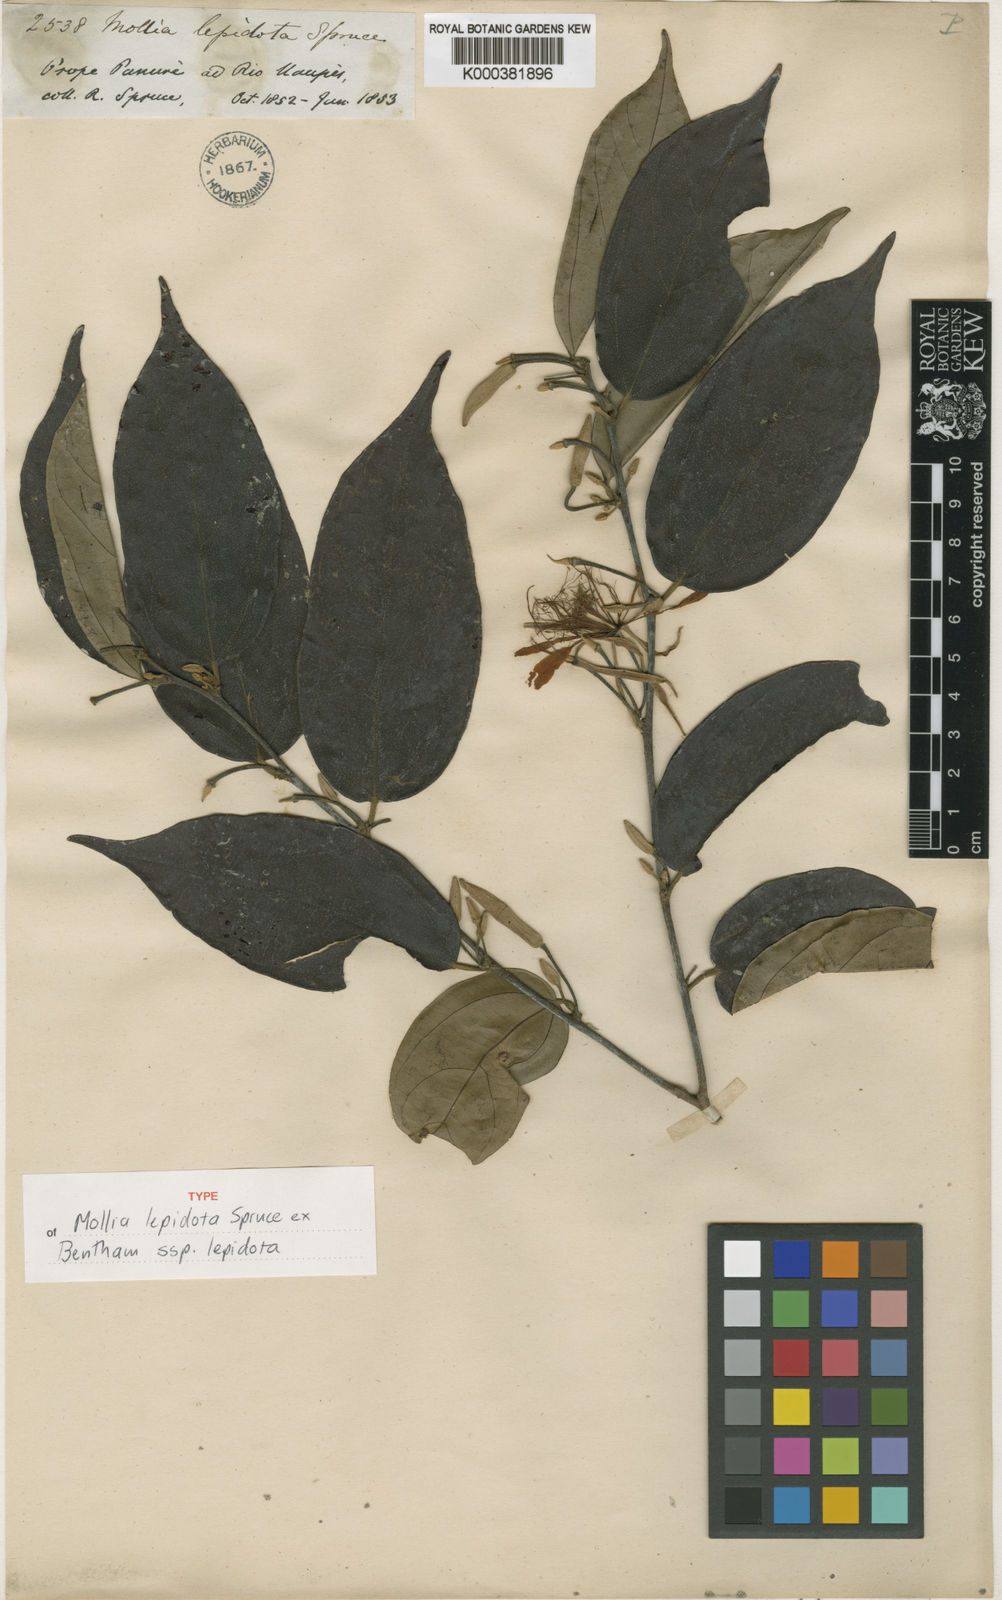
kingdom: Plantae
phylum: Tracheophyta
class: Magnoliopsida
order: Malvales
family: Malvaceae
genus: Mollia
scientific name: Mollia lepidota
